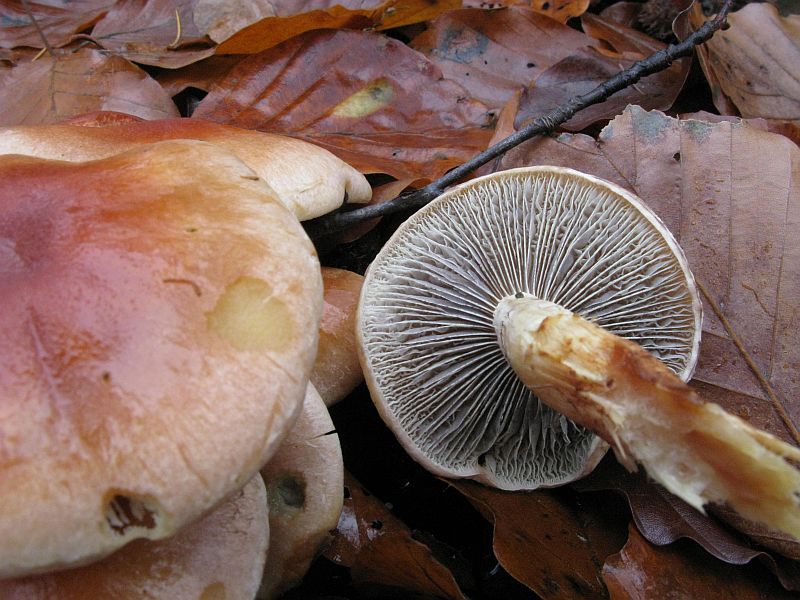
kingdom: Fungi
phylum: Basidiomycota
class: Agaricomycetes
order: Agaricales
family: Strophariaceae
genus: Hypholoma
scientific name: Hypholoma lateritium
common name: teglrød svovlhat
